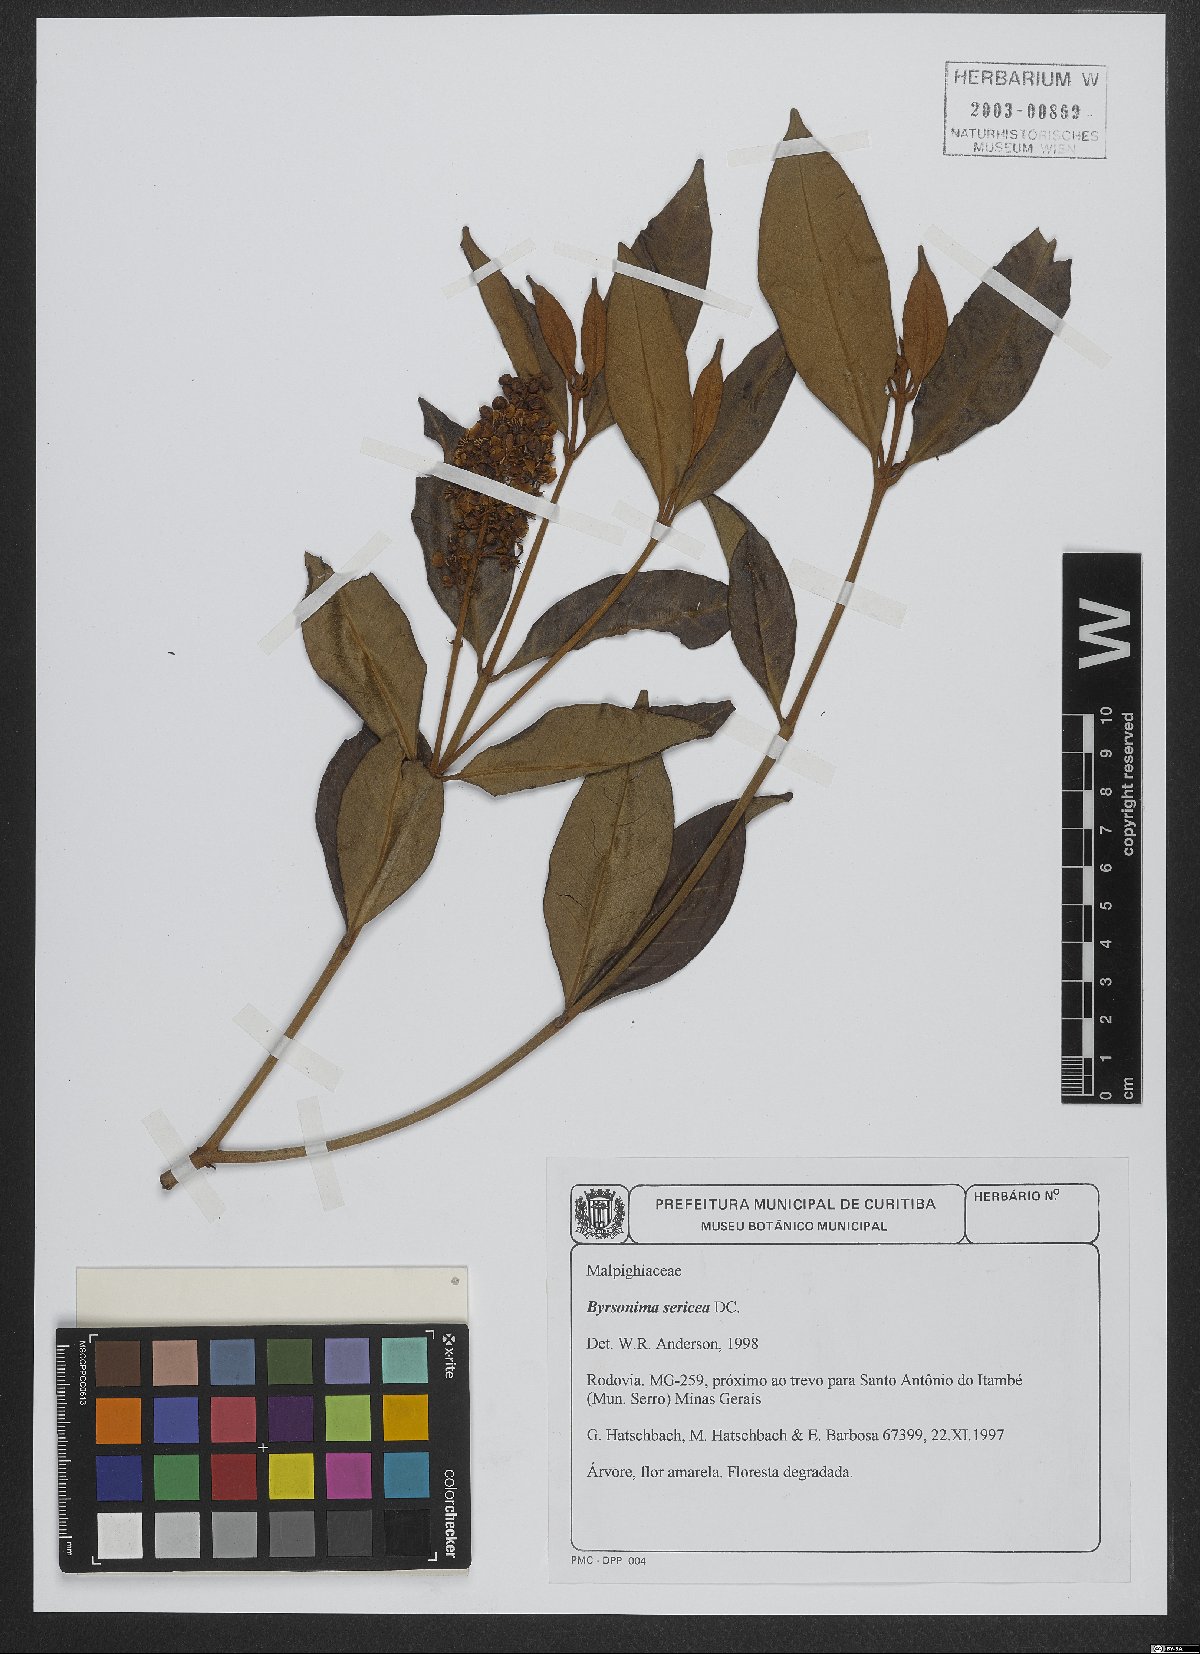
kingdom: Plantae
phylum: Tracheophyta
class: Magnoliopsida
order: Malpighiales
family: Malpighiaceae
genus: Byrsonima
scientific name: Byrsonima sericea
